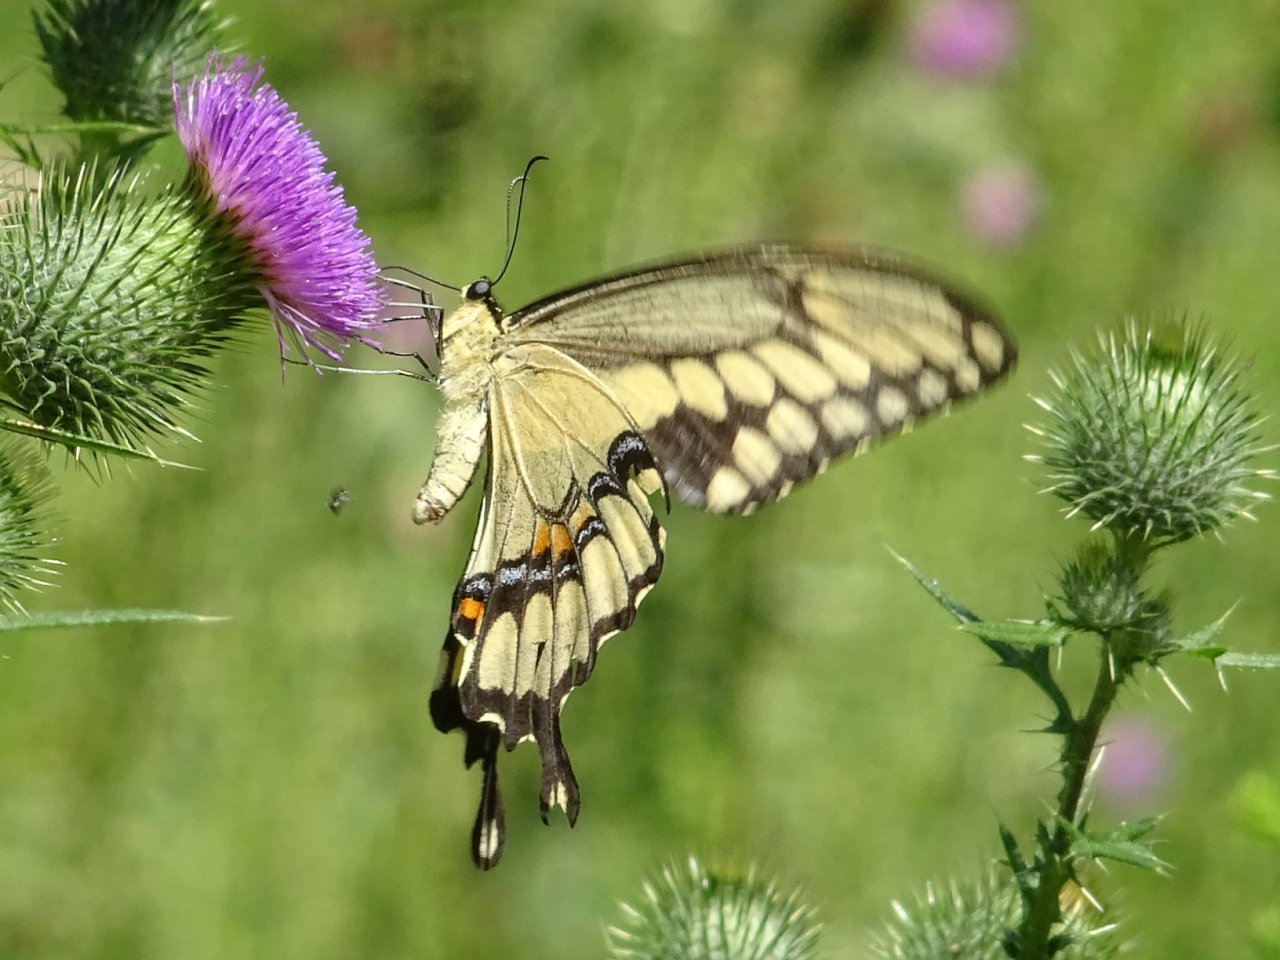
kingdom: Animalia
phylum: Arthropoda
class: Insecta
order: Lepidoptera
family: Papilionidae
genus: Papilio
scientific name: Papilio cresphontes
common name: Eastern Giant Swallowtail
